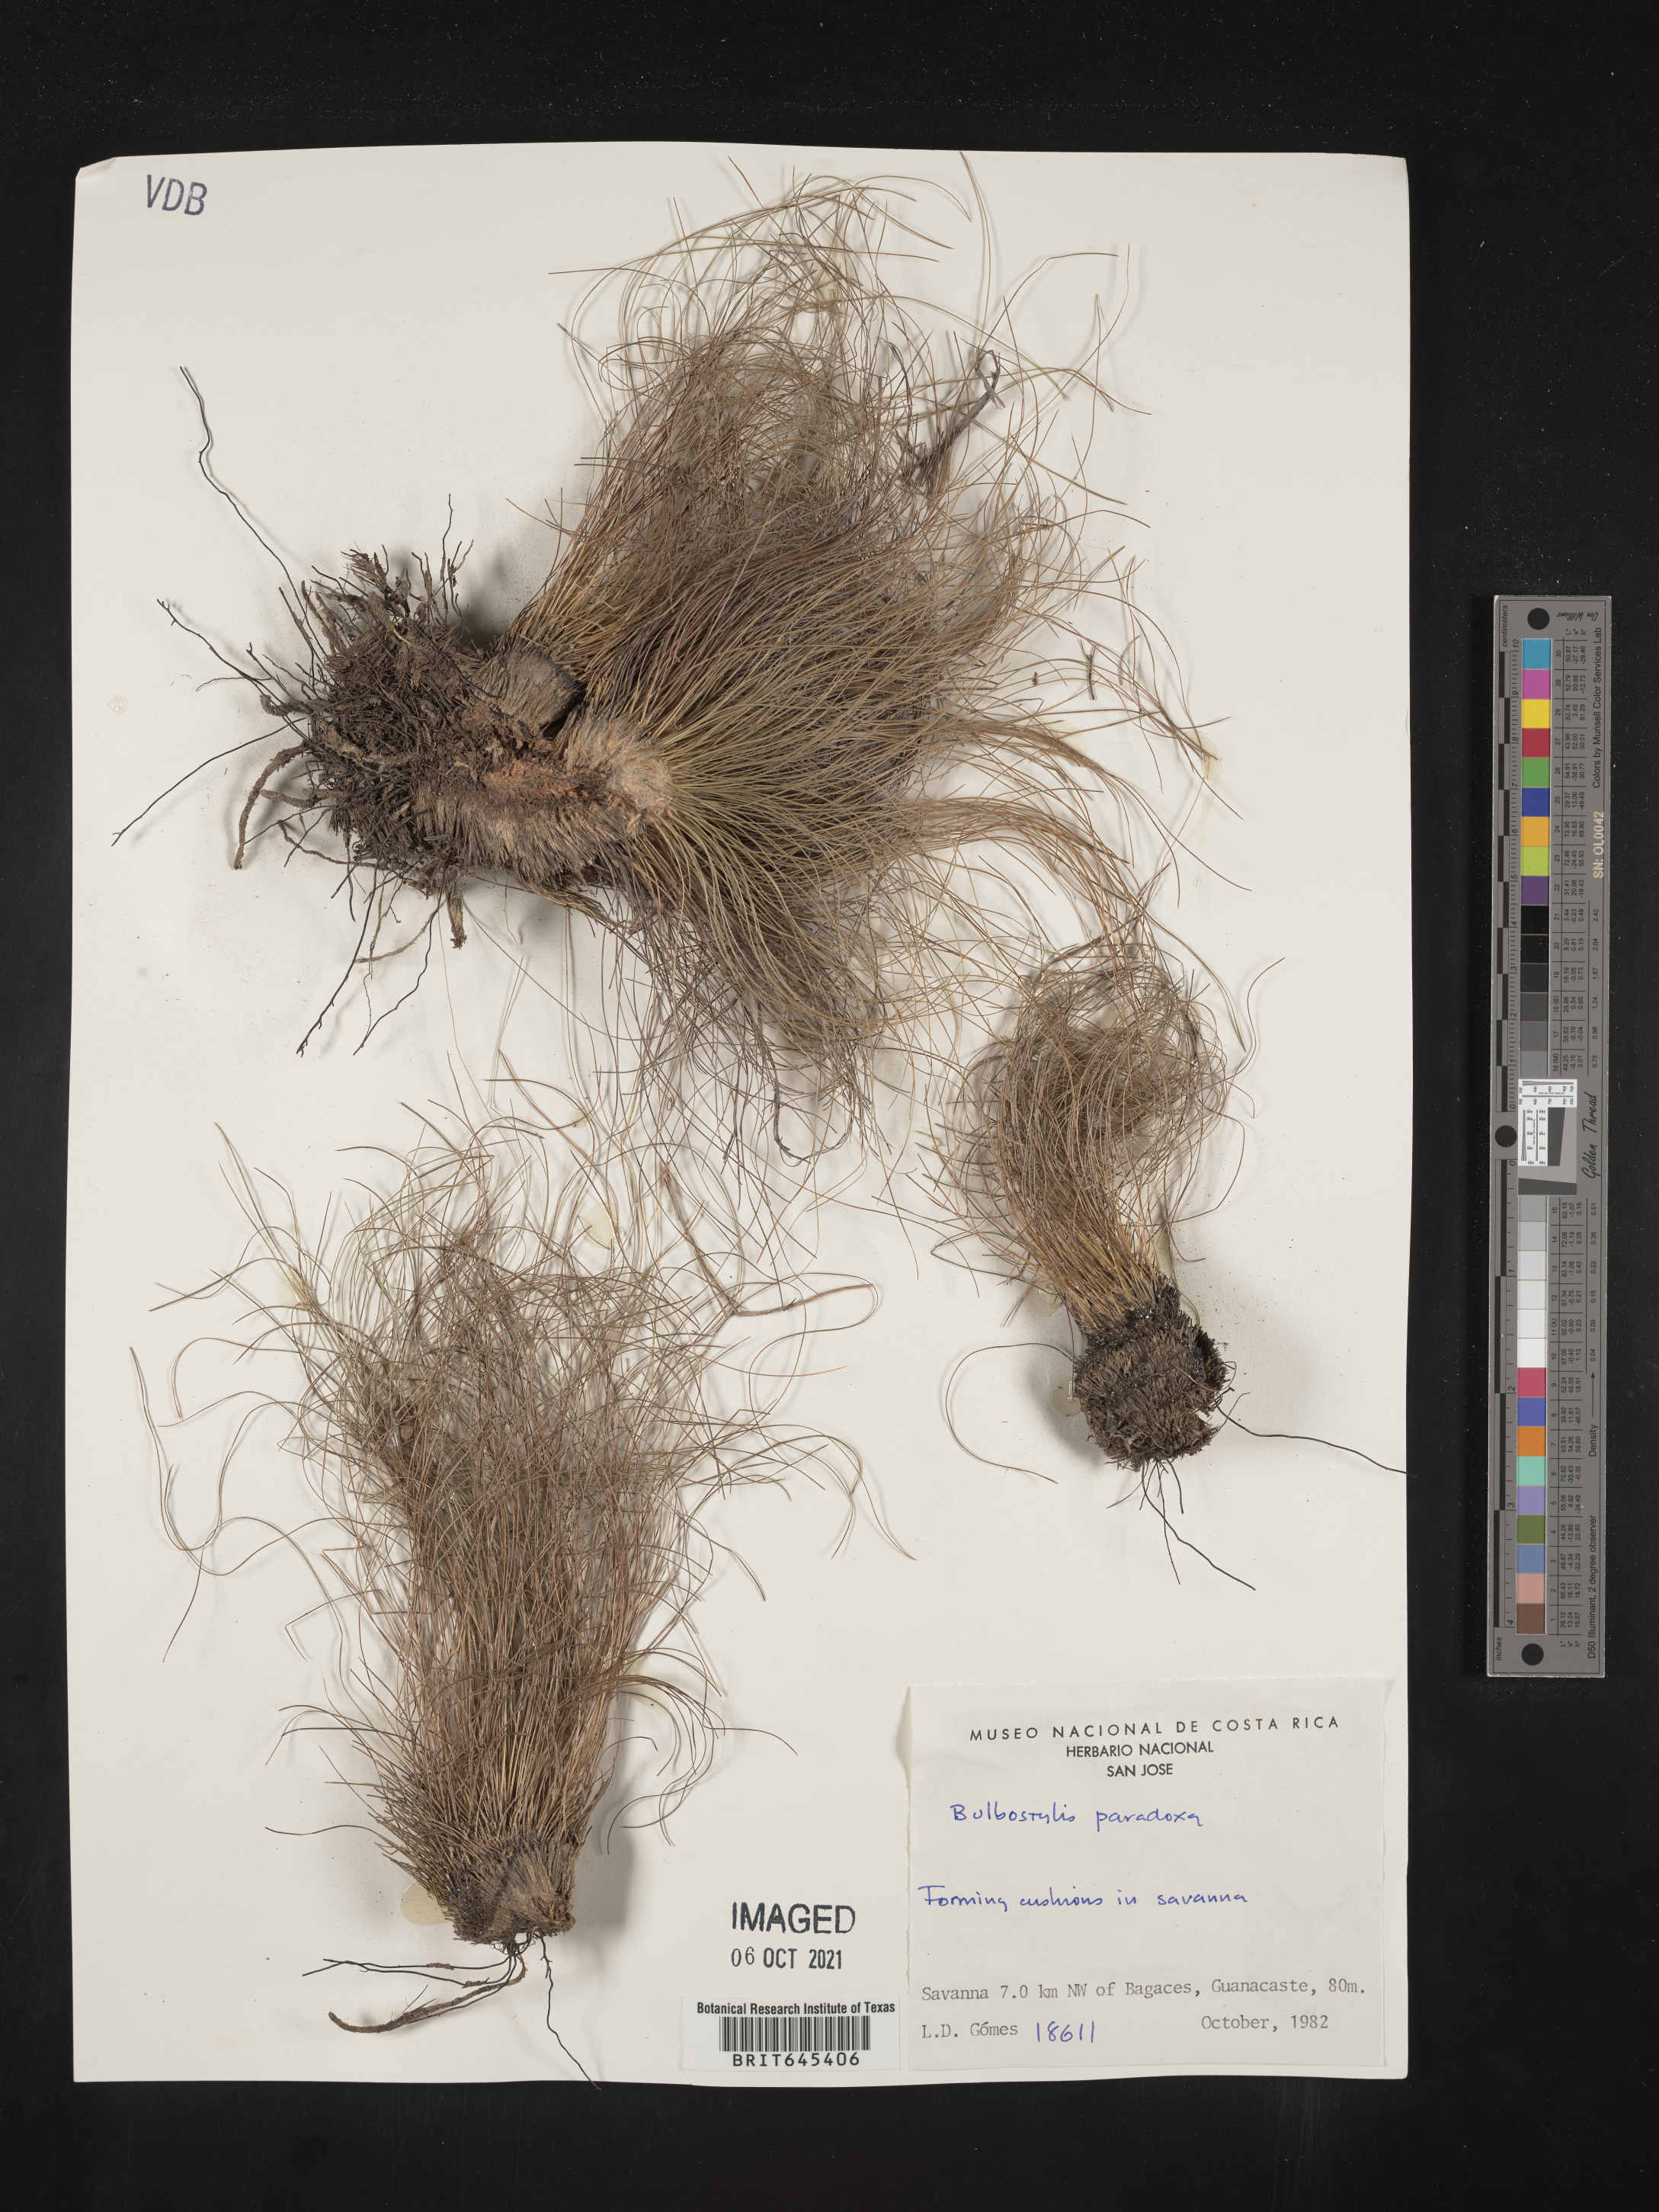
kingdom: Plantae
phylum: Tracheophyta
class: Liliopsida
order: Poales
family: Cyperaceae
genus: Bulbostylis
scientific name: Bulbostylis paradoxa
